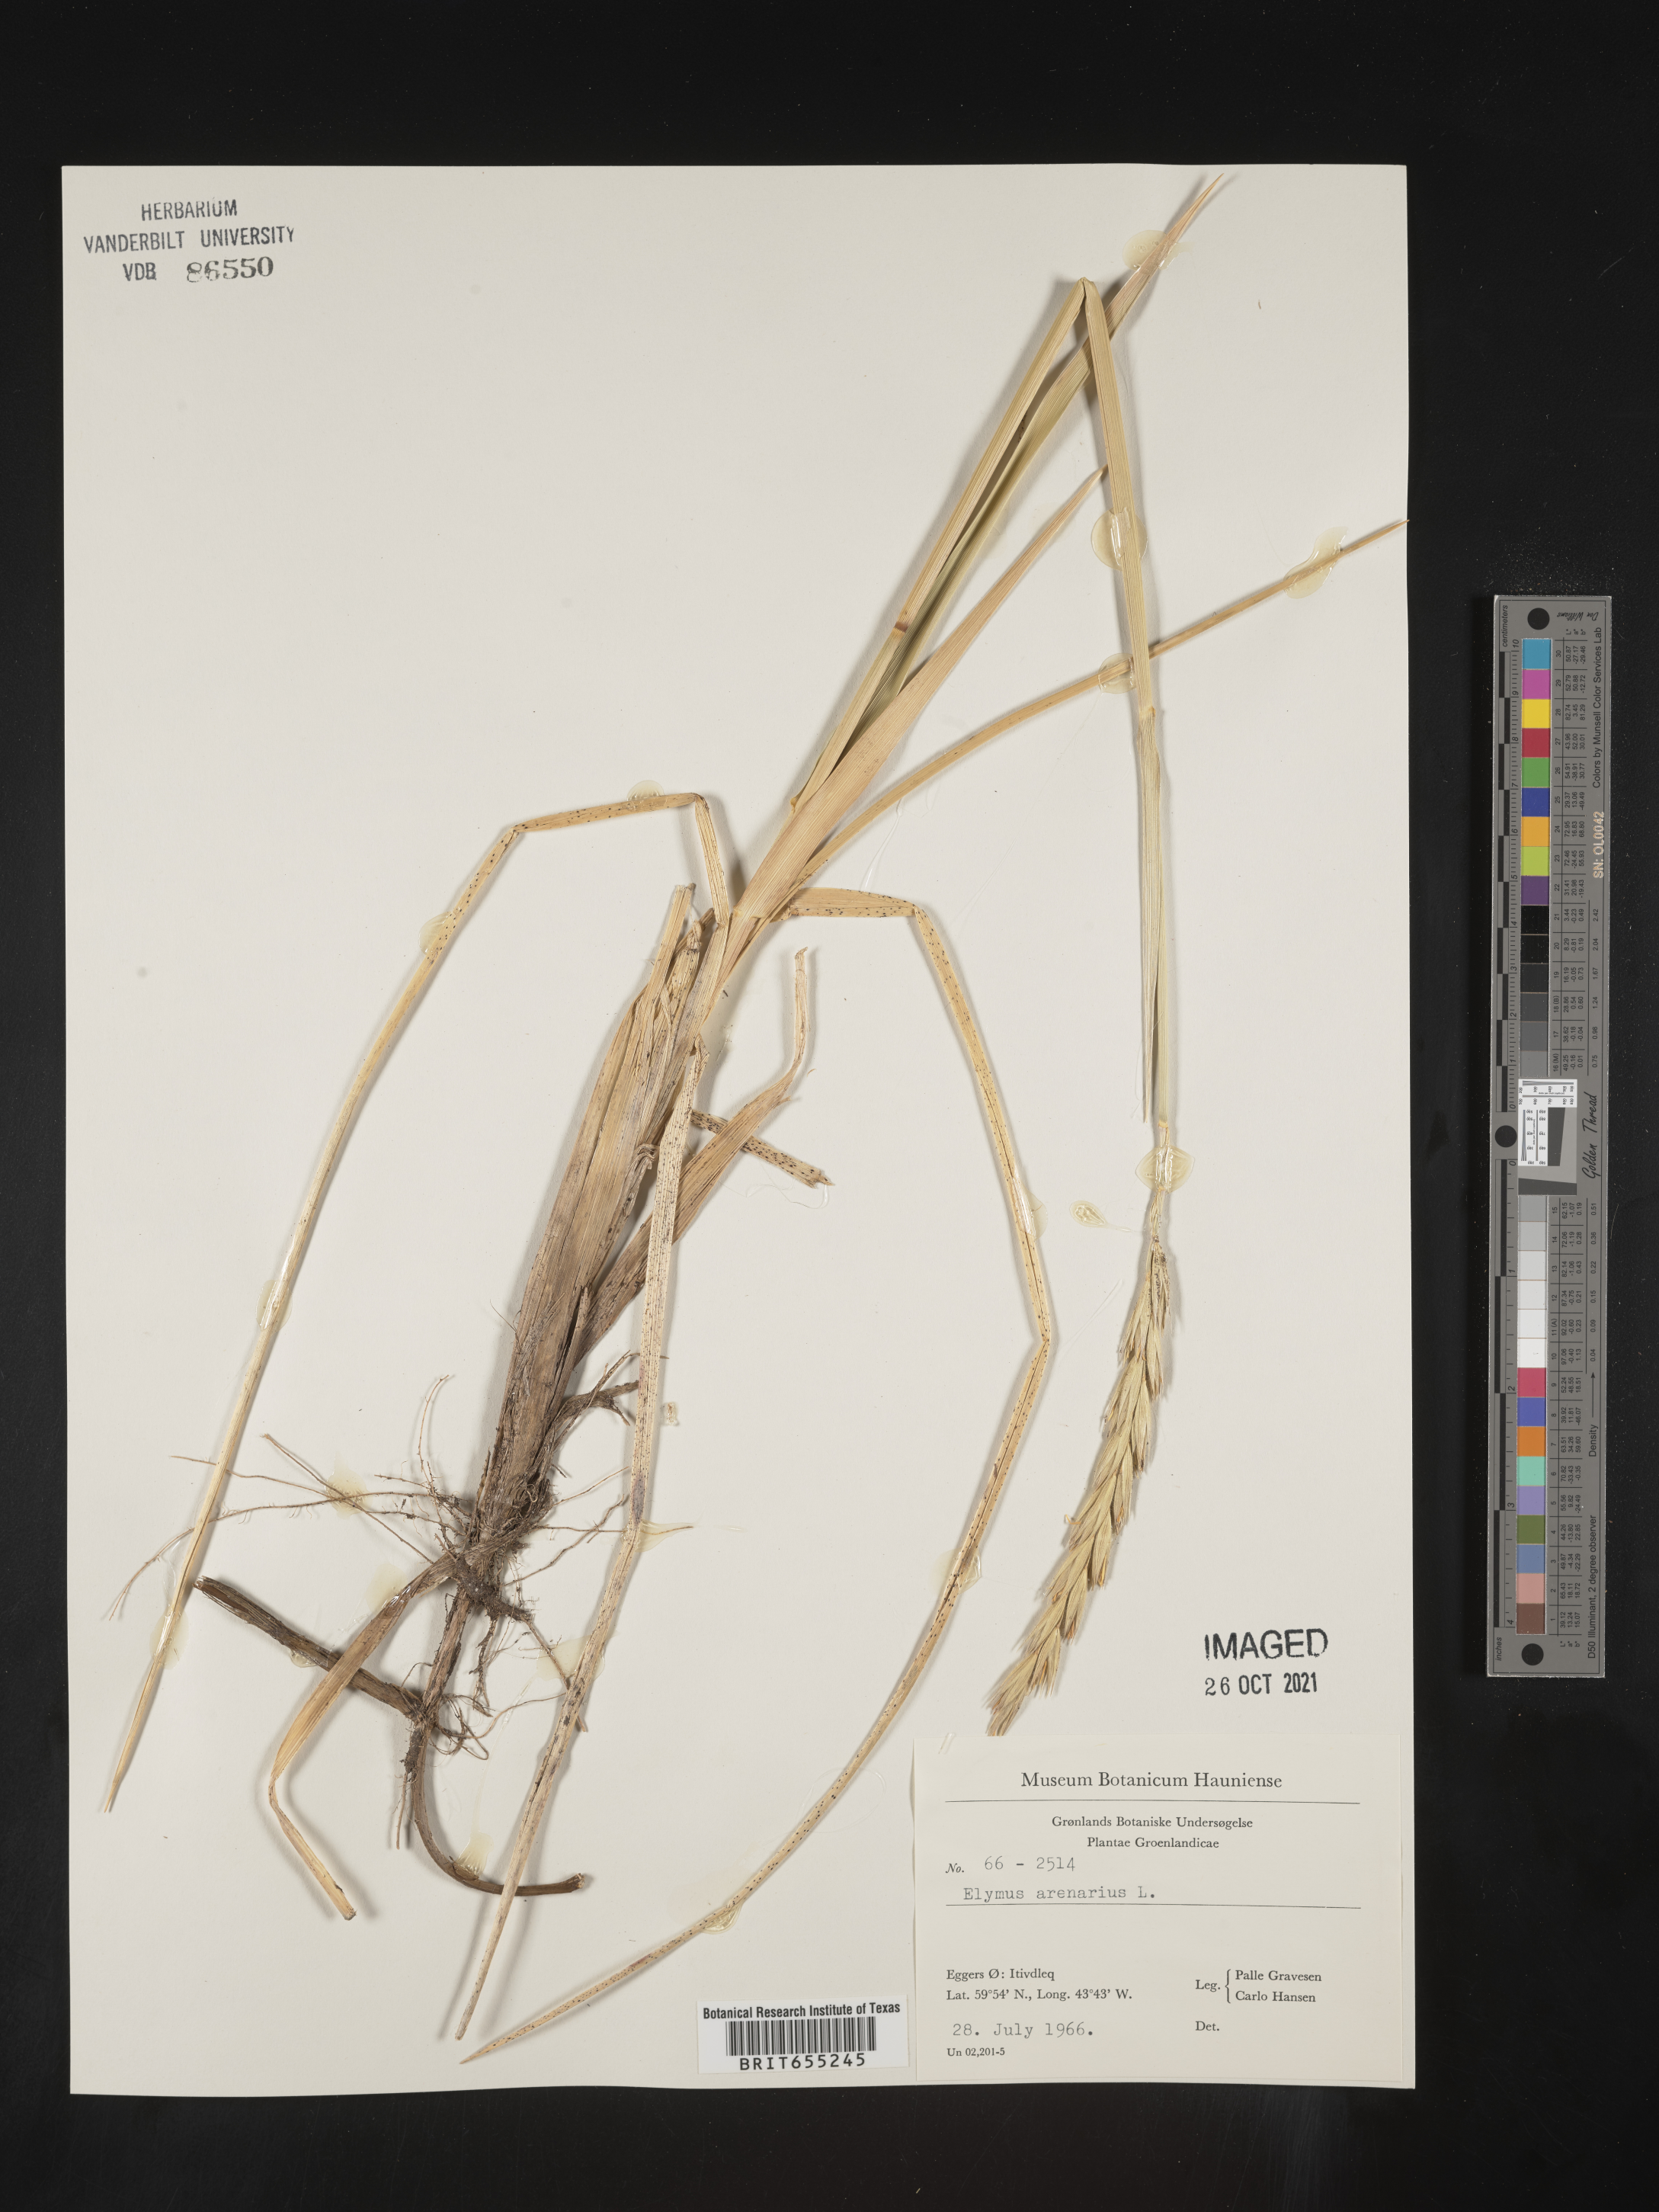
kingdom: Plantae
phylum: Tracheophyta
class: Liliopsida
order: Poales
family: Poaceae
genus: Elymus
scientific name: Elymus
